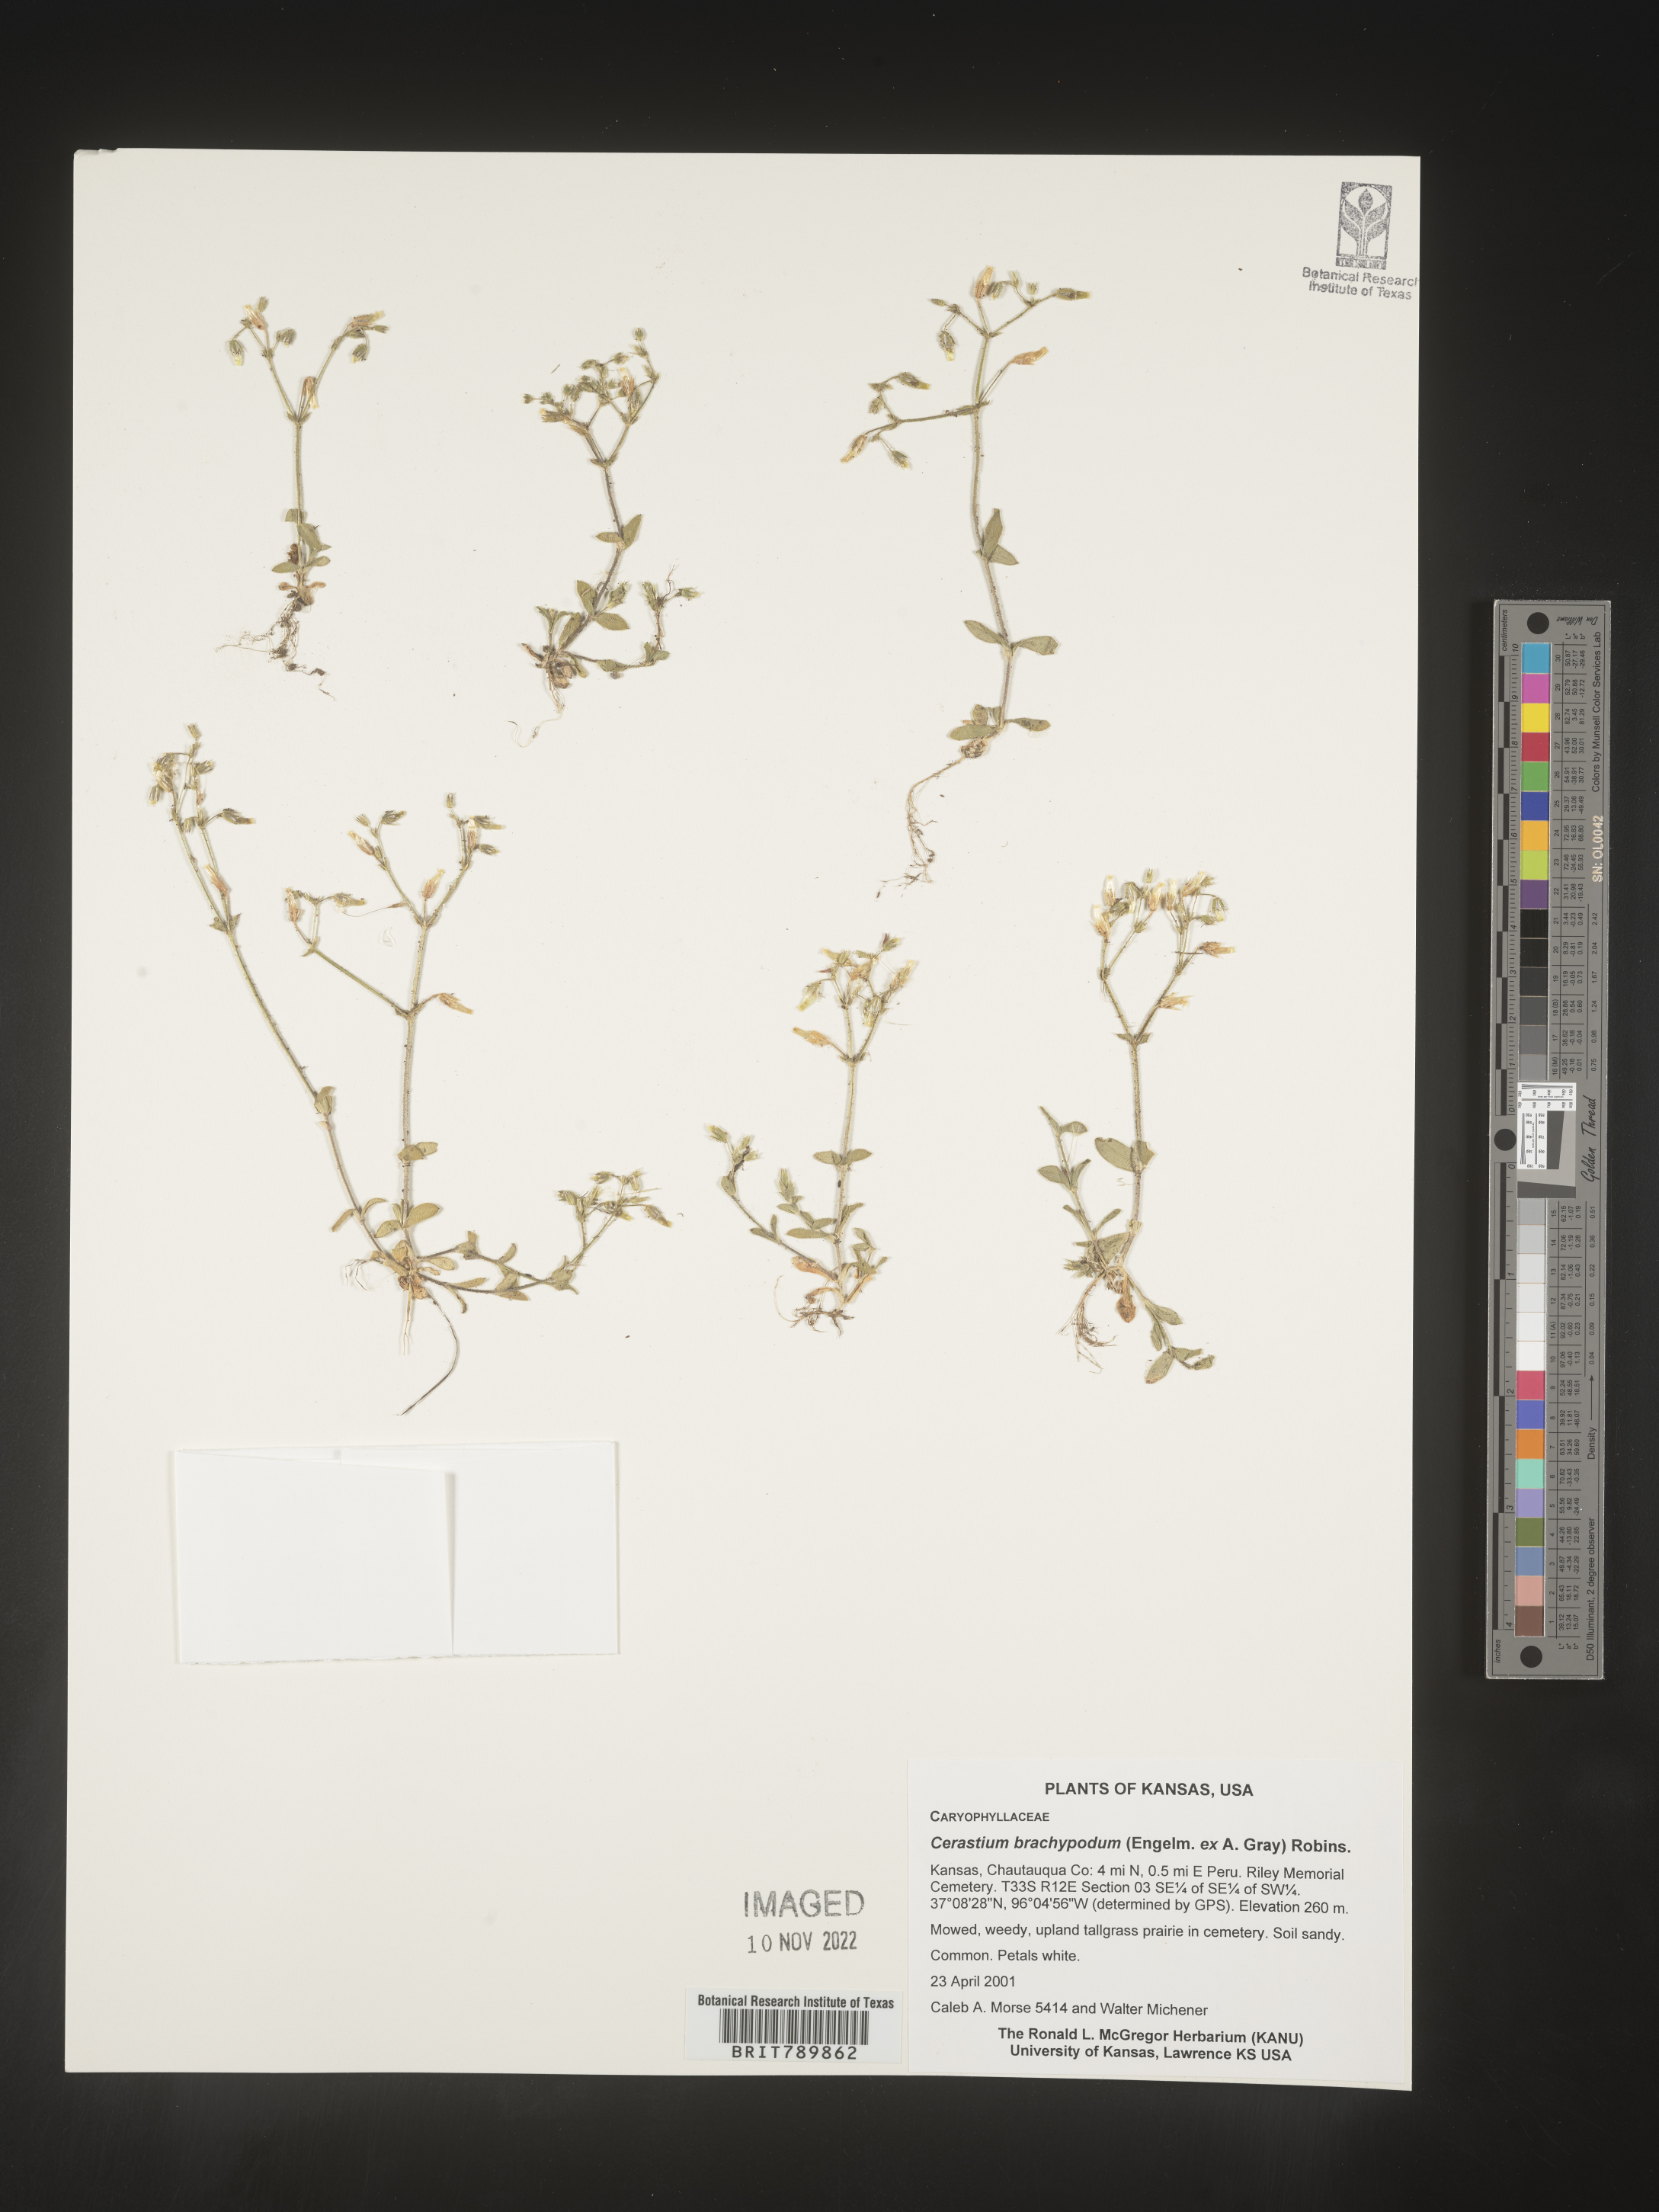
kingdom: Plantae
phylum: Tracheophyta
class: Magnoliopsida
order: Caryophyllales
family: Caryophyllaceae
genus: Cerastium
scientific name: Cerastium brachypodum
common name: Short-pedicelled nodding chickweed
